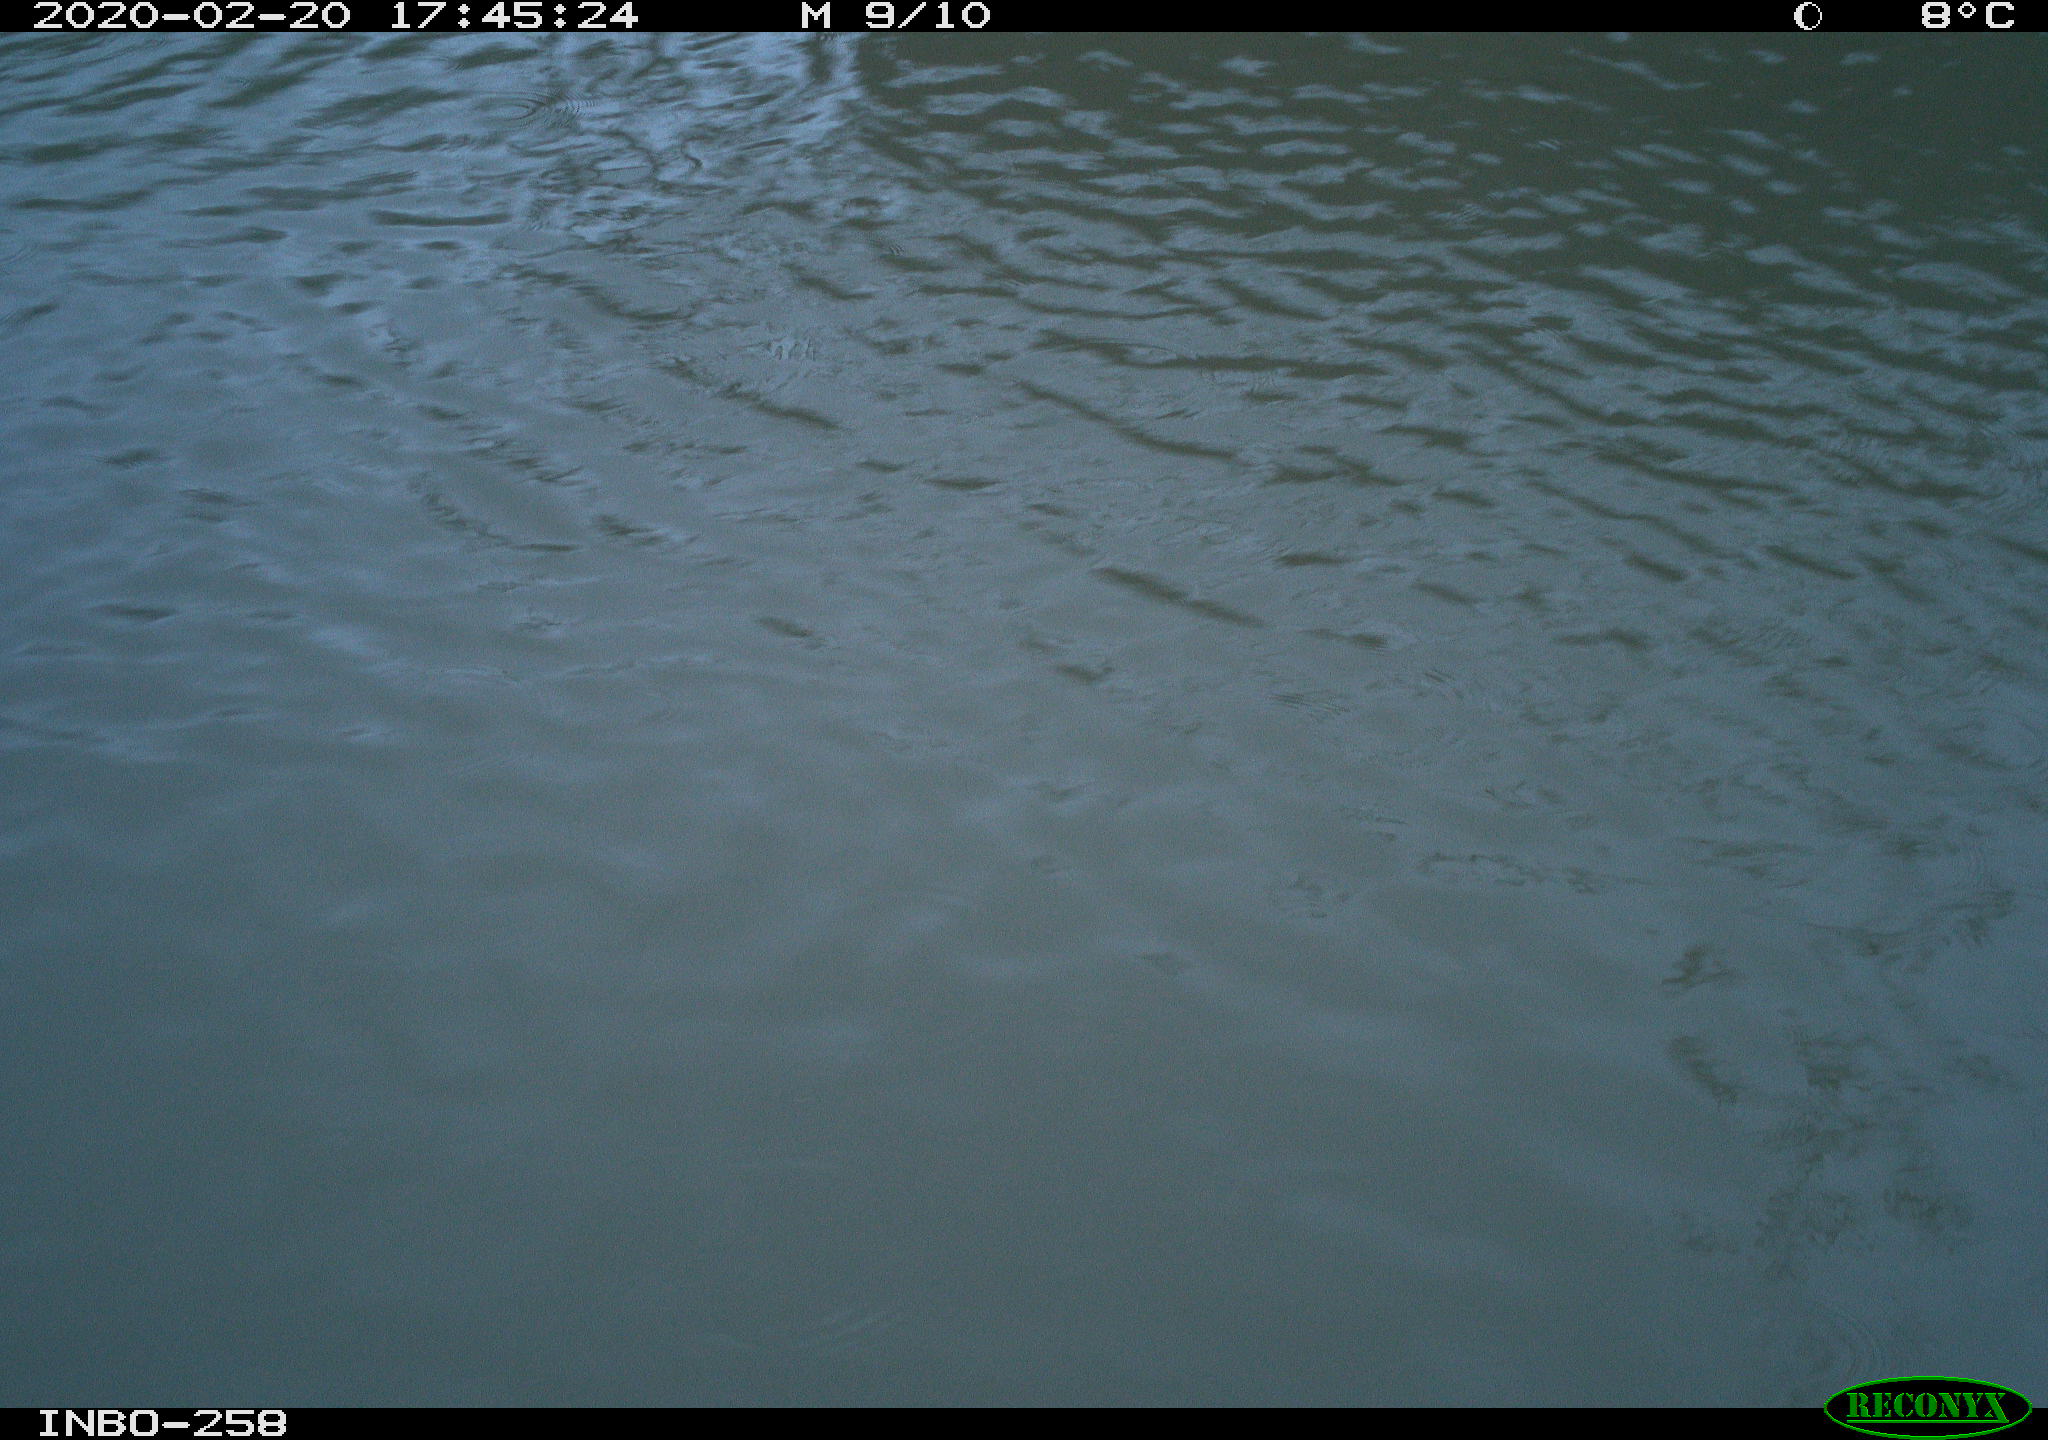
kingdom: Animalia
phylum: Chordata
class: Aves
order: Gruiformes
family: Rallidae
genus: Gallinula
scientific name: Gallinula chloropus
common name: Common moorhen
